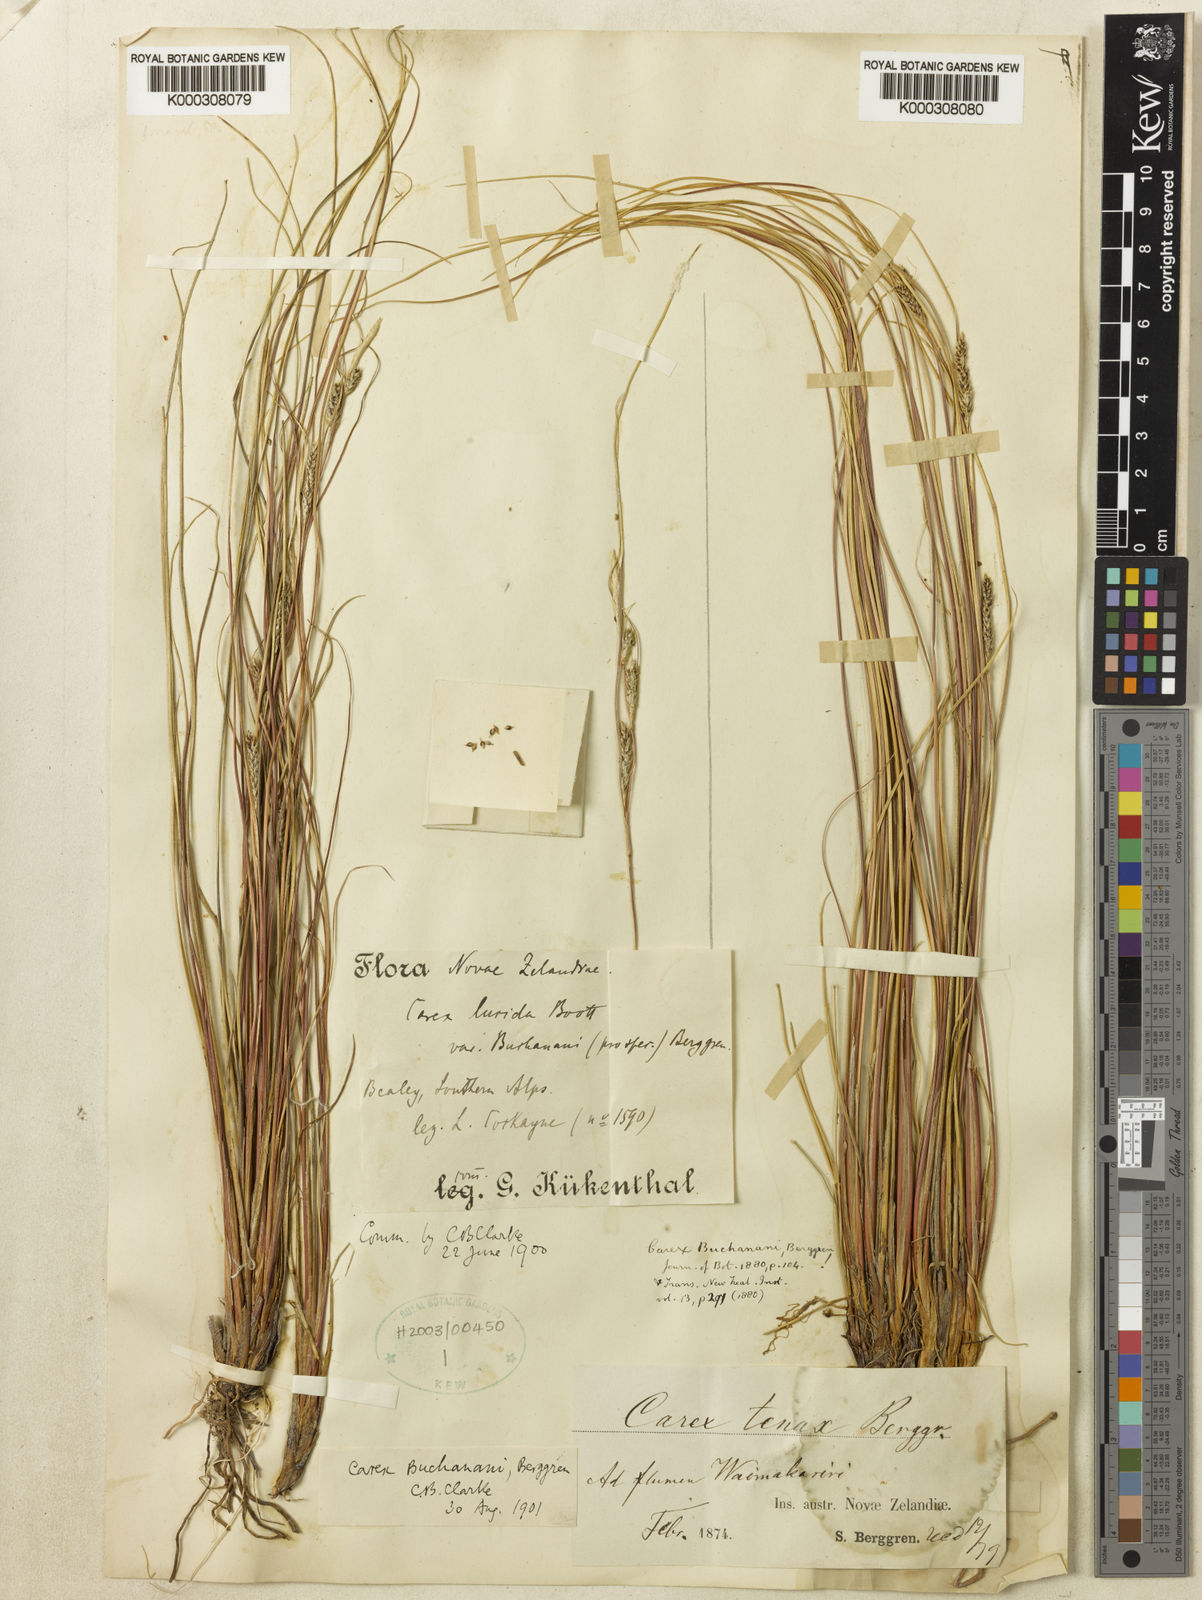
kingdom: Plantae
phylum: Tracheophyta
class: Liliopsida
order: Poales
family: Cyperaceae
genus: Carex
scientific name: Carex flagellifera
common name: Glen murray tussock
